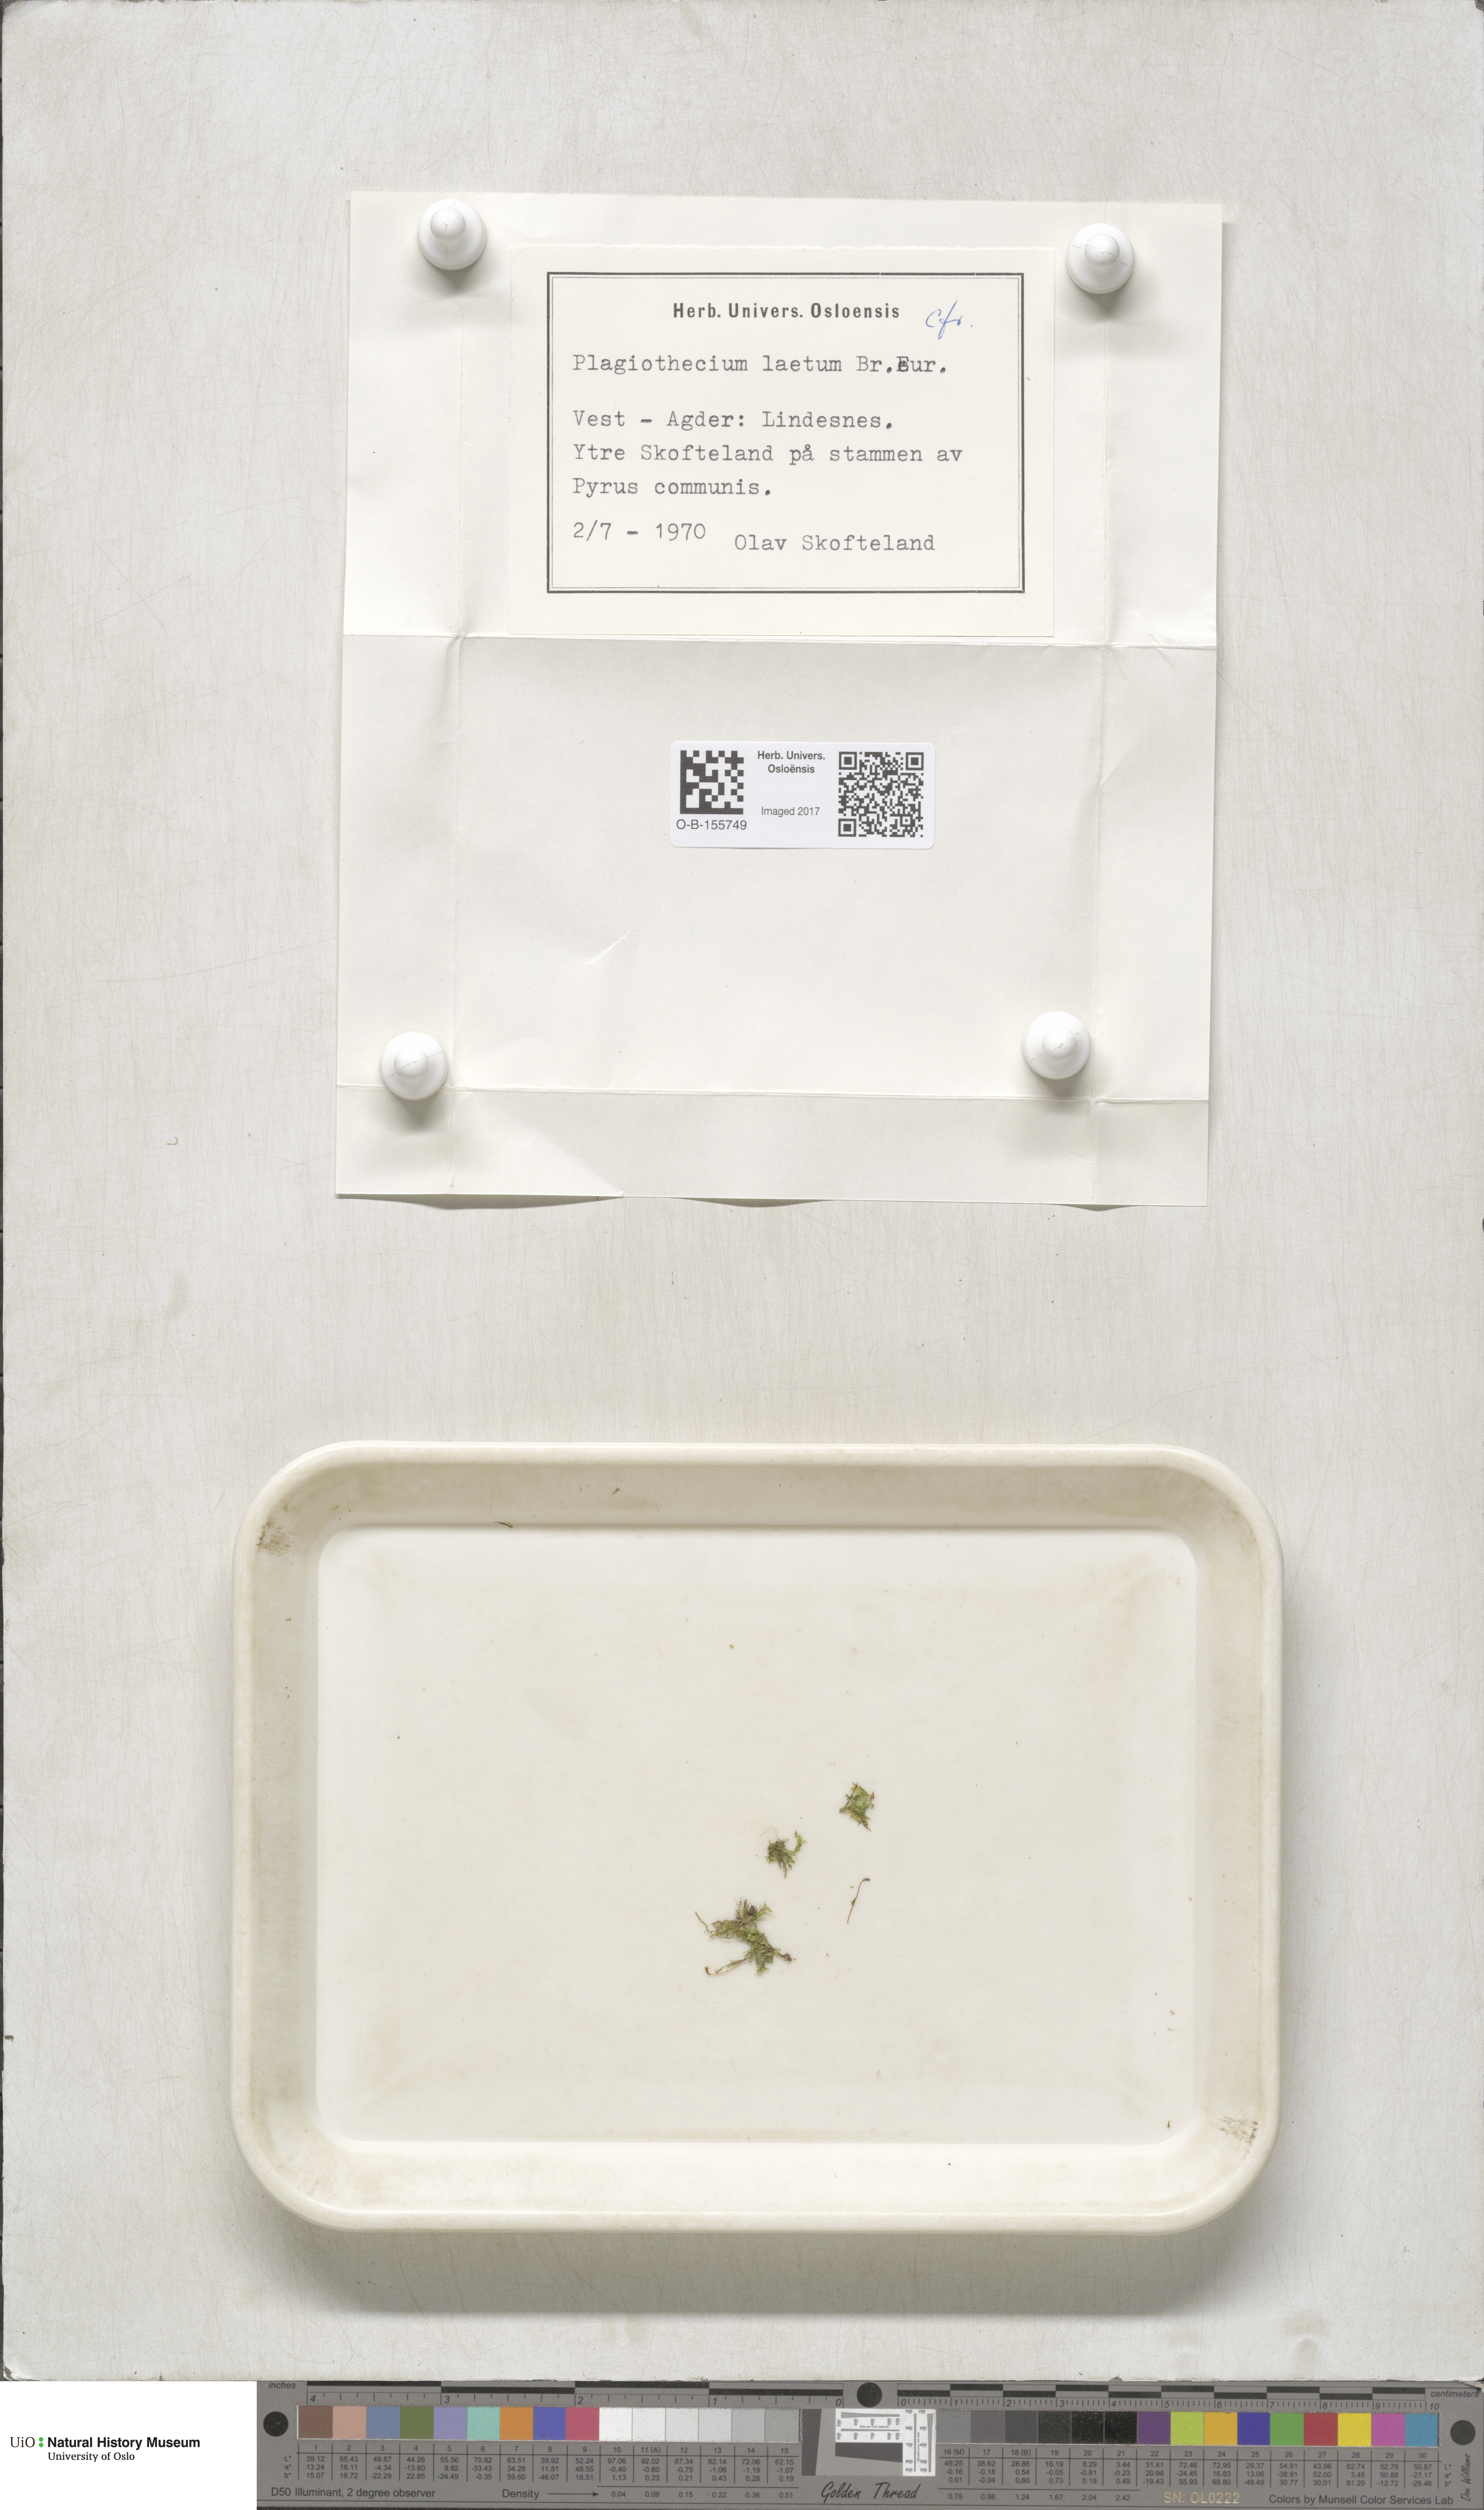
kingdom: Plantae
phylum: Bryophyta
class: Bryopsida
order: Hypnales
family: Plagiotheciaceae
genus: Plagiothecium
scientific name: Plagiothecium laetum
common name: Bright silk moss
